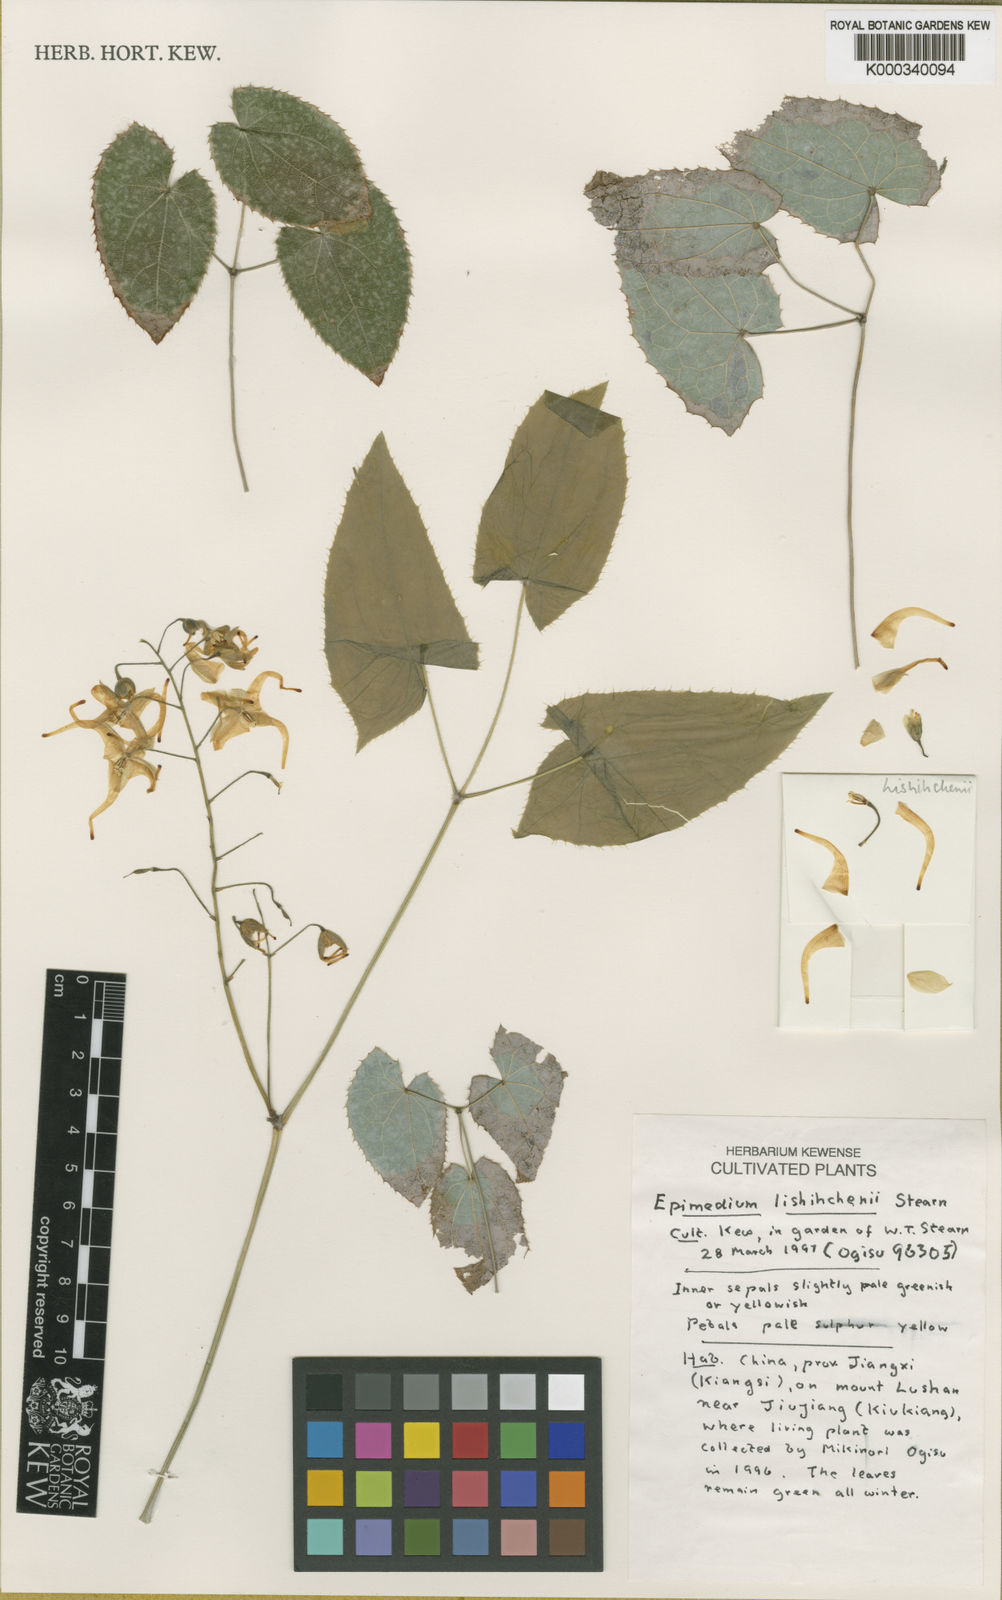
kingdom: Plantae
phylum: Tracheophyta
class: Magnoliopsida
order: Ranunculales
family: Berberidaceae
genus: Epimedium
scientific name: Epimedium lishihchenii
